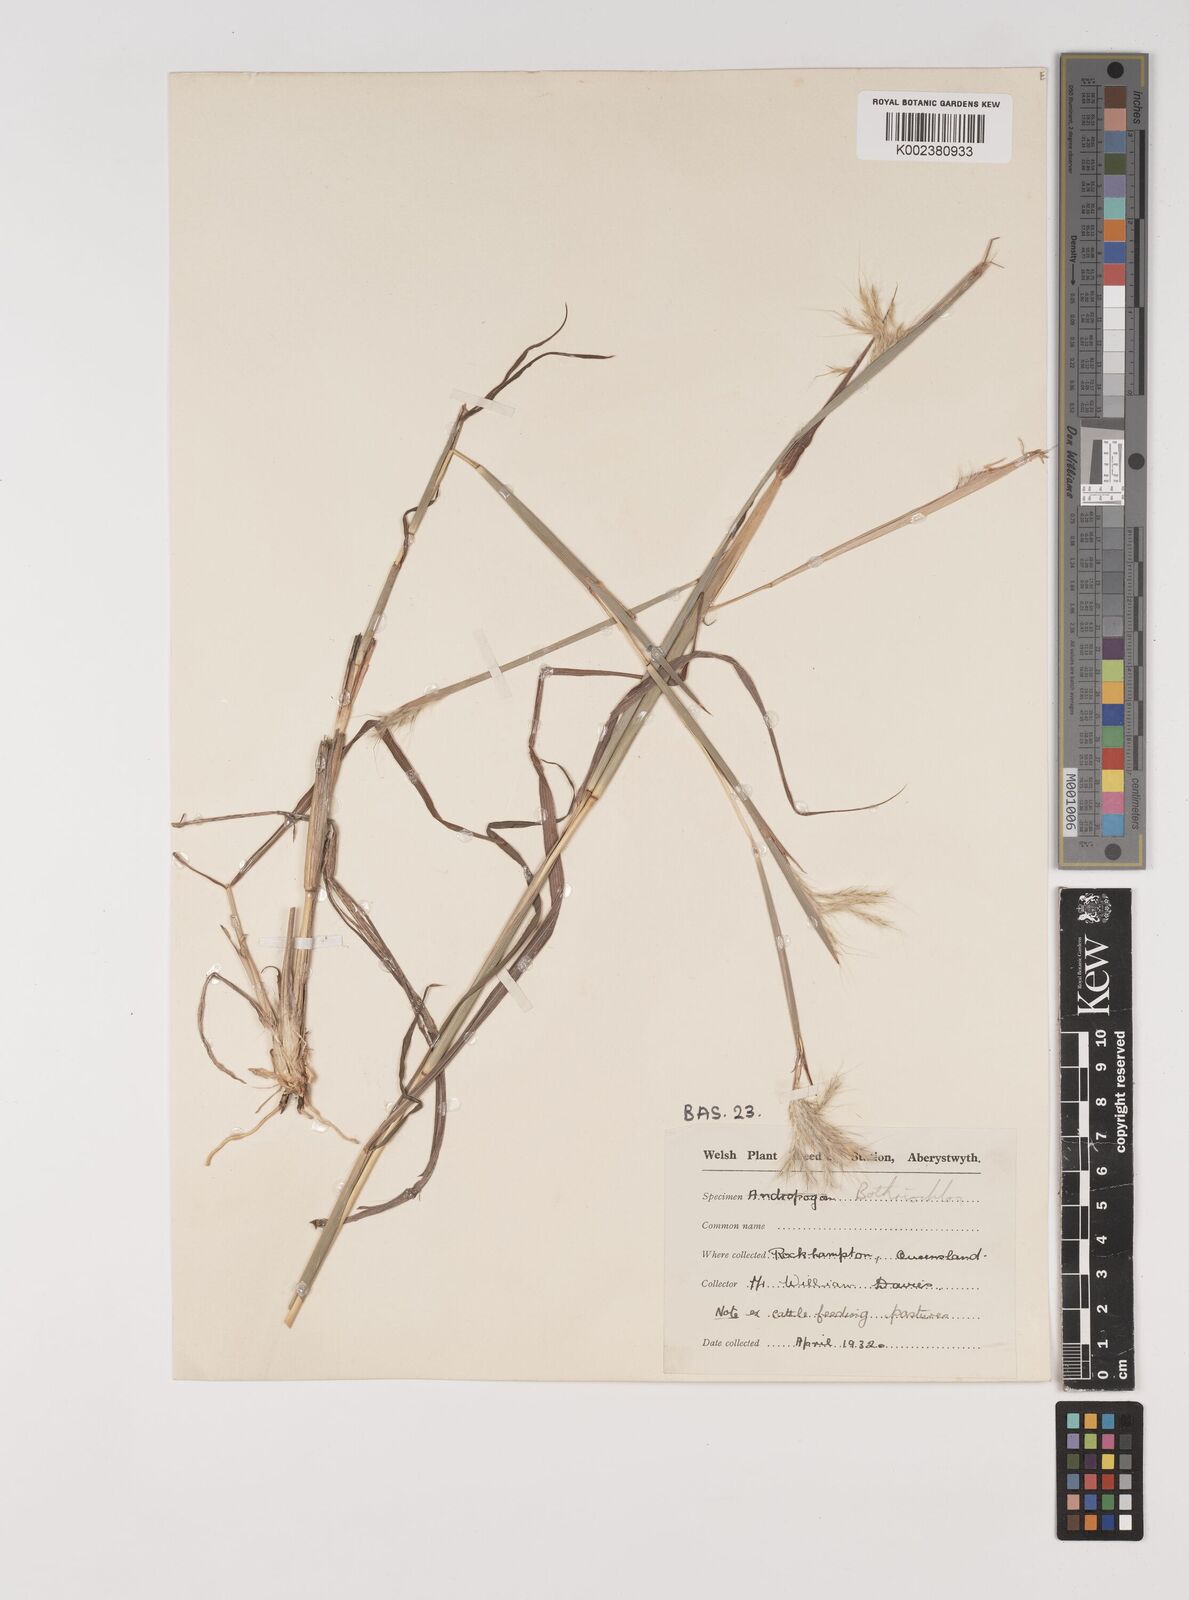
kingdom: Plantae
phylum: Tracheophyta
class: Liliopsida
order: Poales
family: Poaceae
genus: Bothriochloa
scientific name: Bothriochloa decipiens
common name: Pitted-bluegrass
